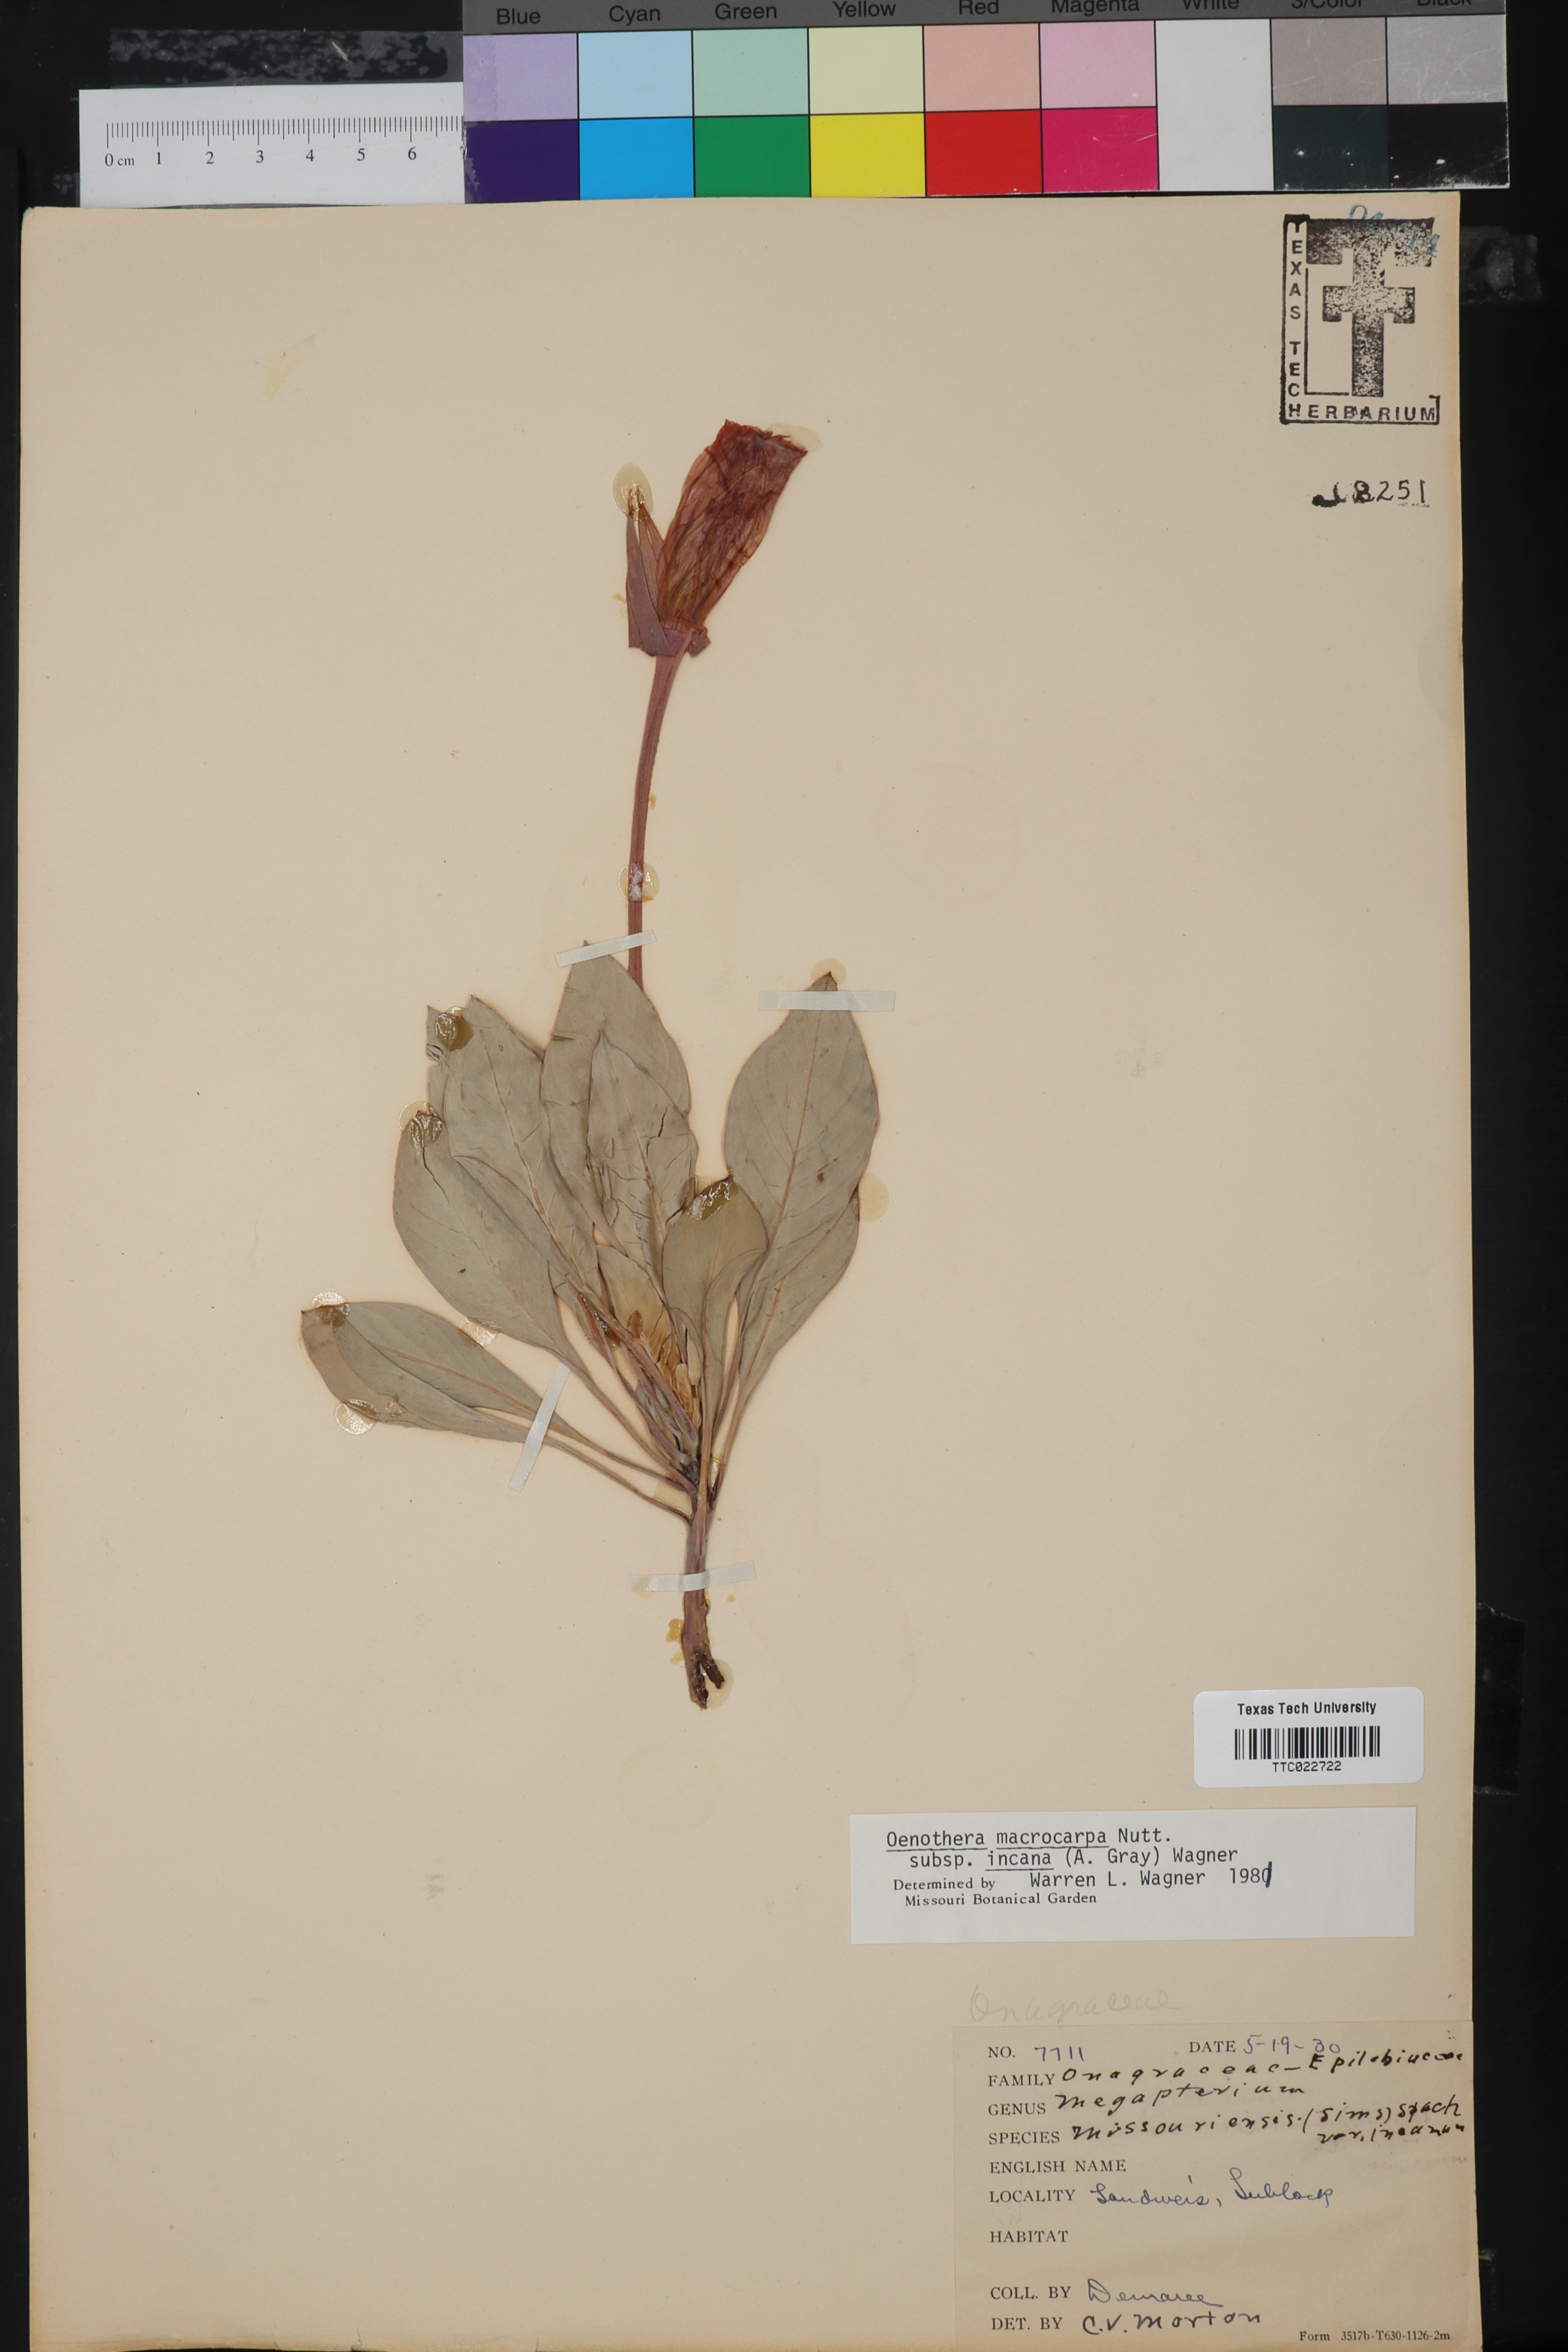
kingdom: Plantae
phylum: Tracheophyta
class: Magnoliopsida
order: Myrtales
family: Onagraceae
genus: Oenothera
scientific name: Oenothera macrocarpa
